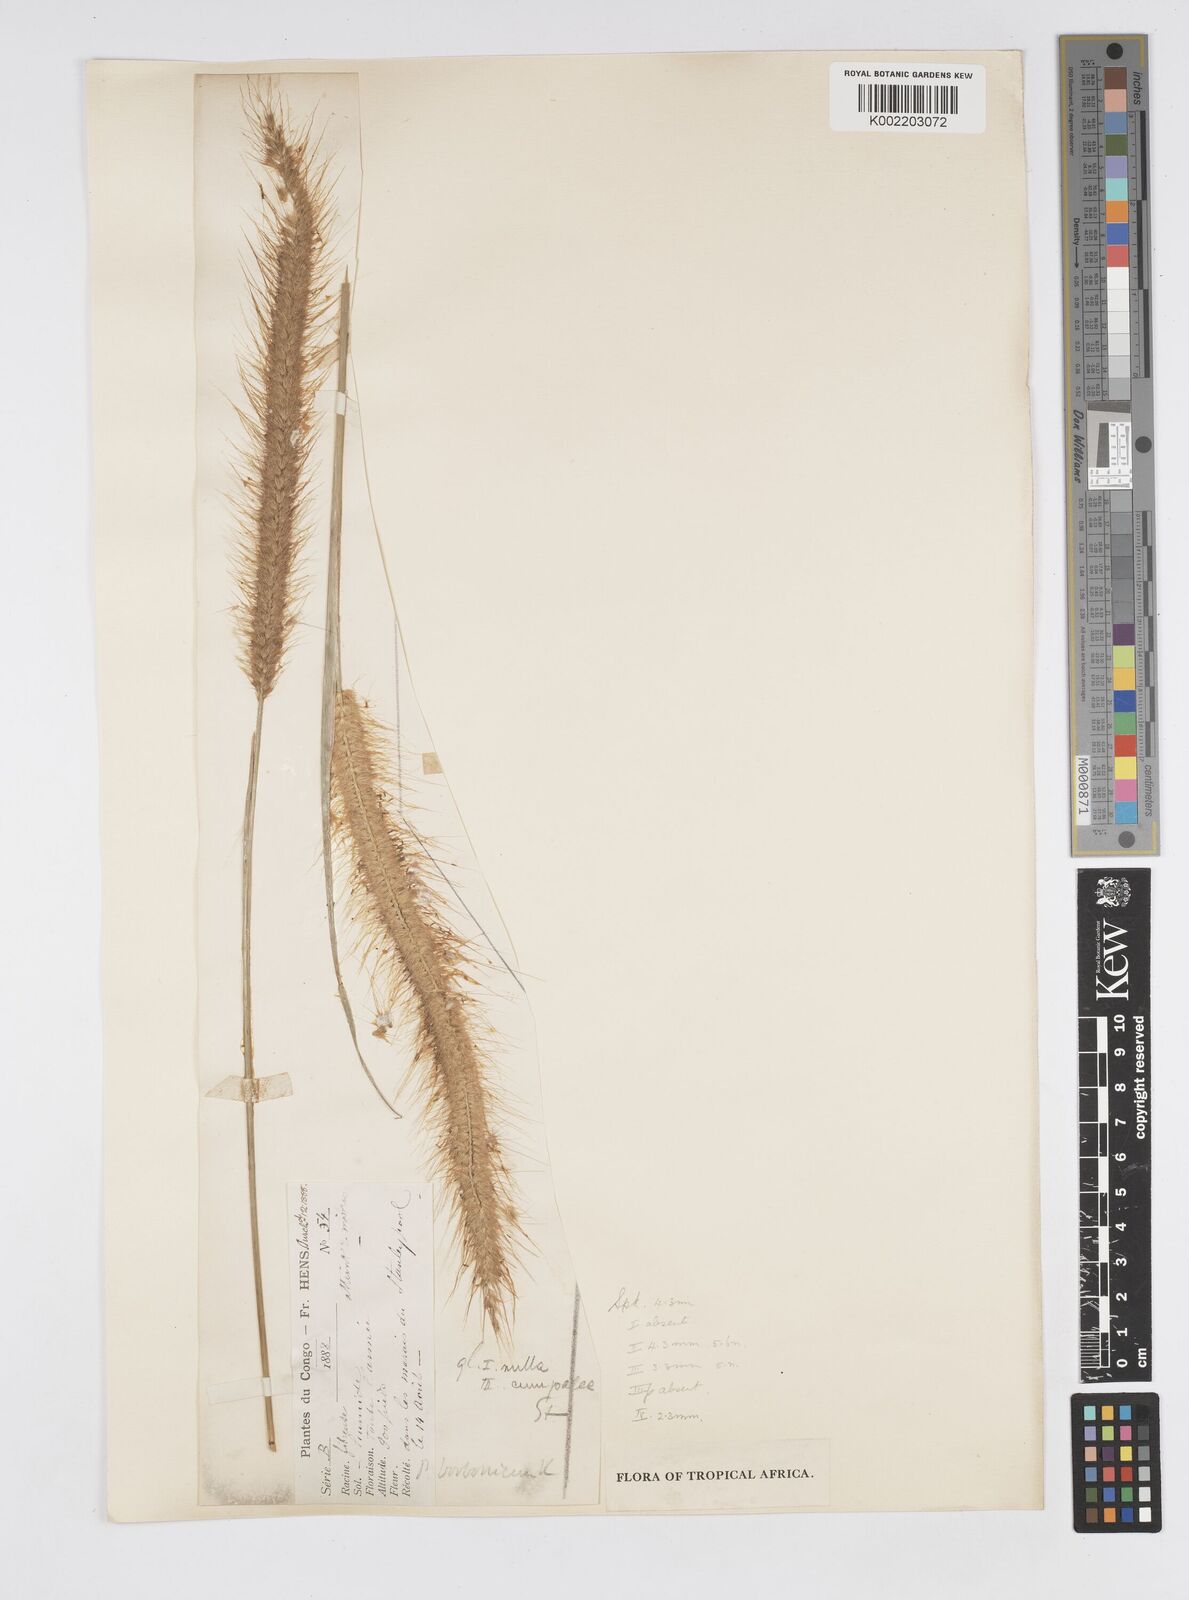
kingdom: Plantae
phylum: Tracheophyta
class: Liliopsida
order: Poales
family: Poaceae
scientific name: Poaceae
